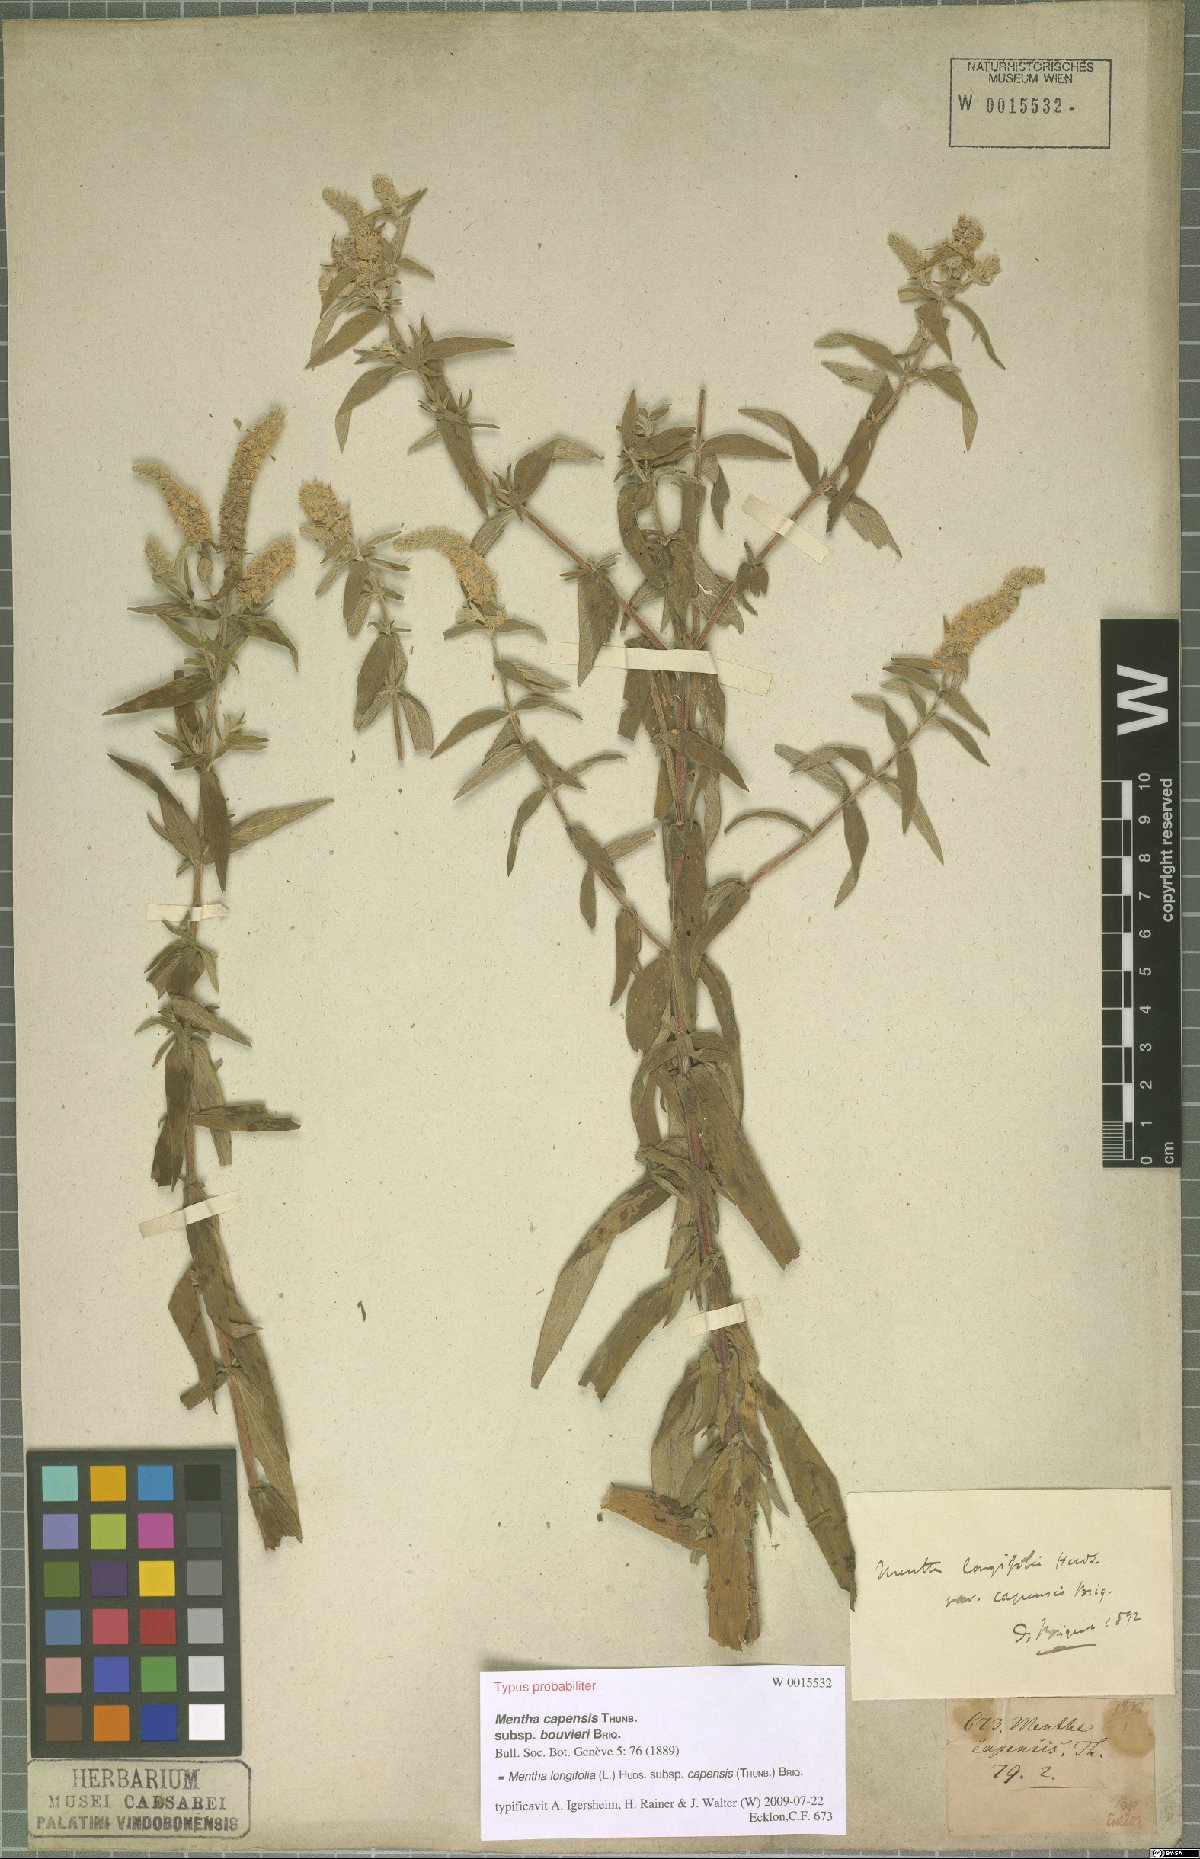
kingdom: Plantae
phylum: Tracheophyta
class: Magnoliopsida
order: Lamiales
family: Lamiaceae
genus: Mentha
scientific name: Mentha longifolia
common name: Horse mint
